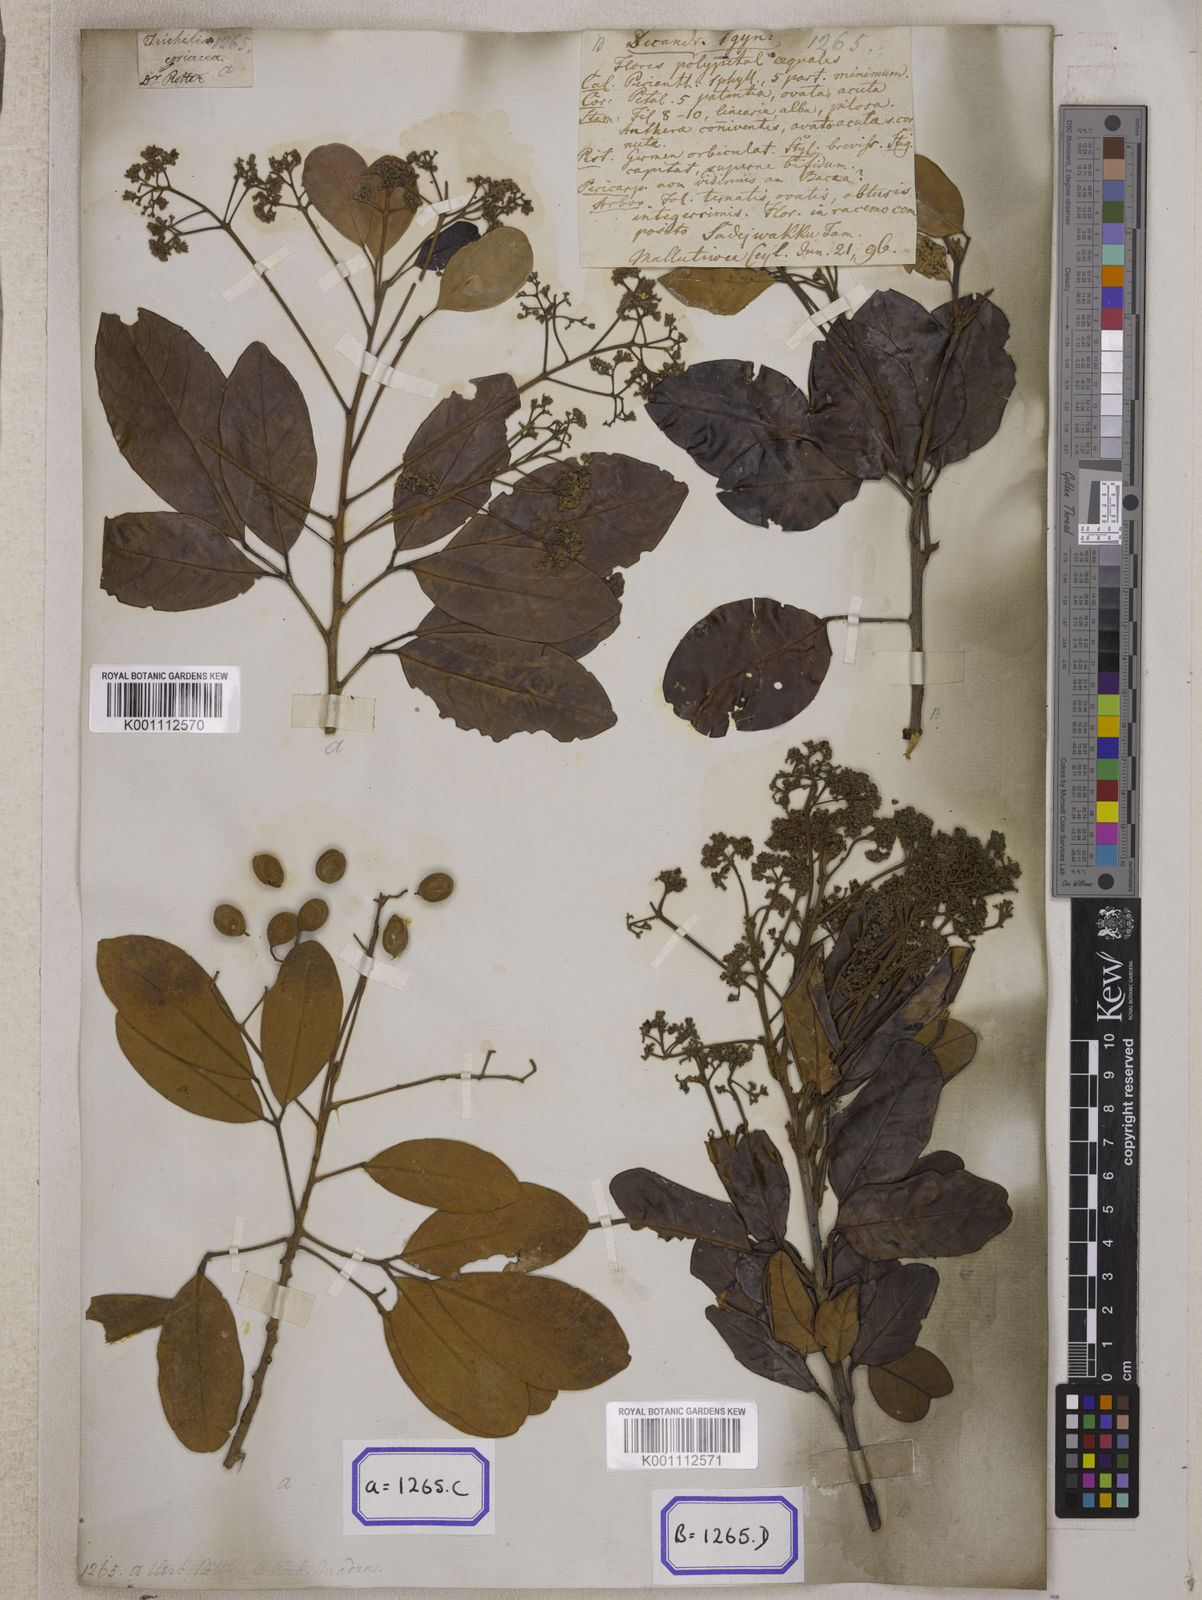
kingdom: Plantae
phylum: Tracheophyta
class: Magnoliopsida
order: Sapindales
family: Meliaceae
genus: Walsura
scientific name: Walsura trifoliolata
